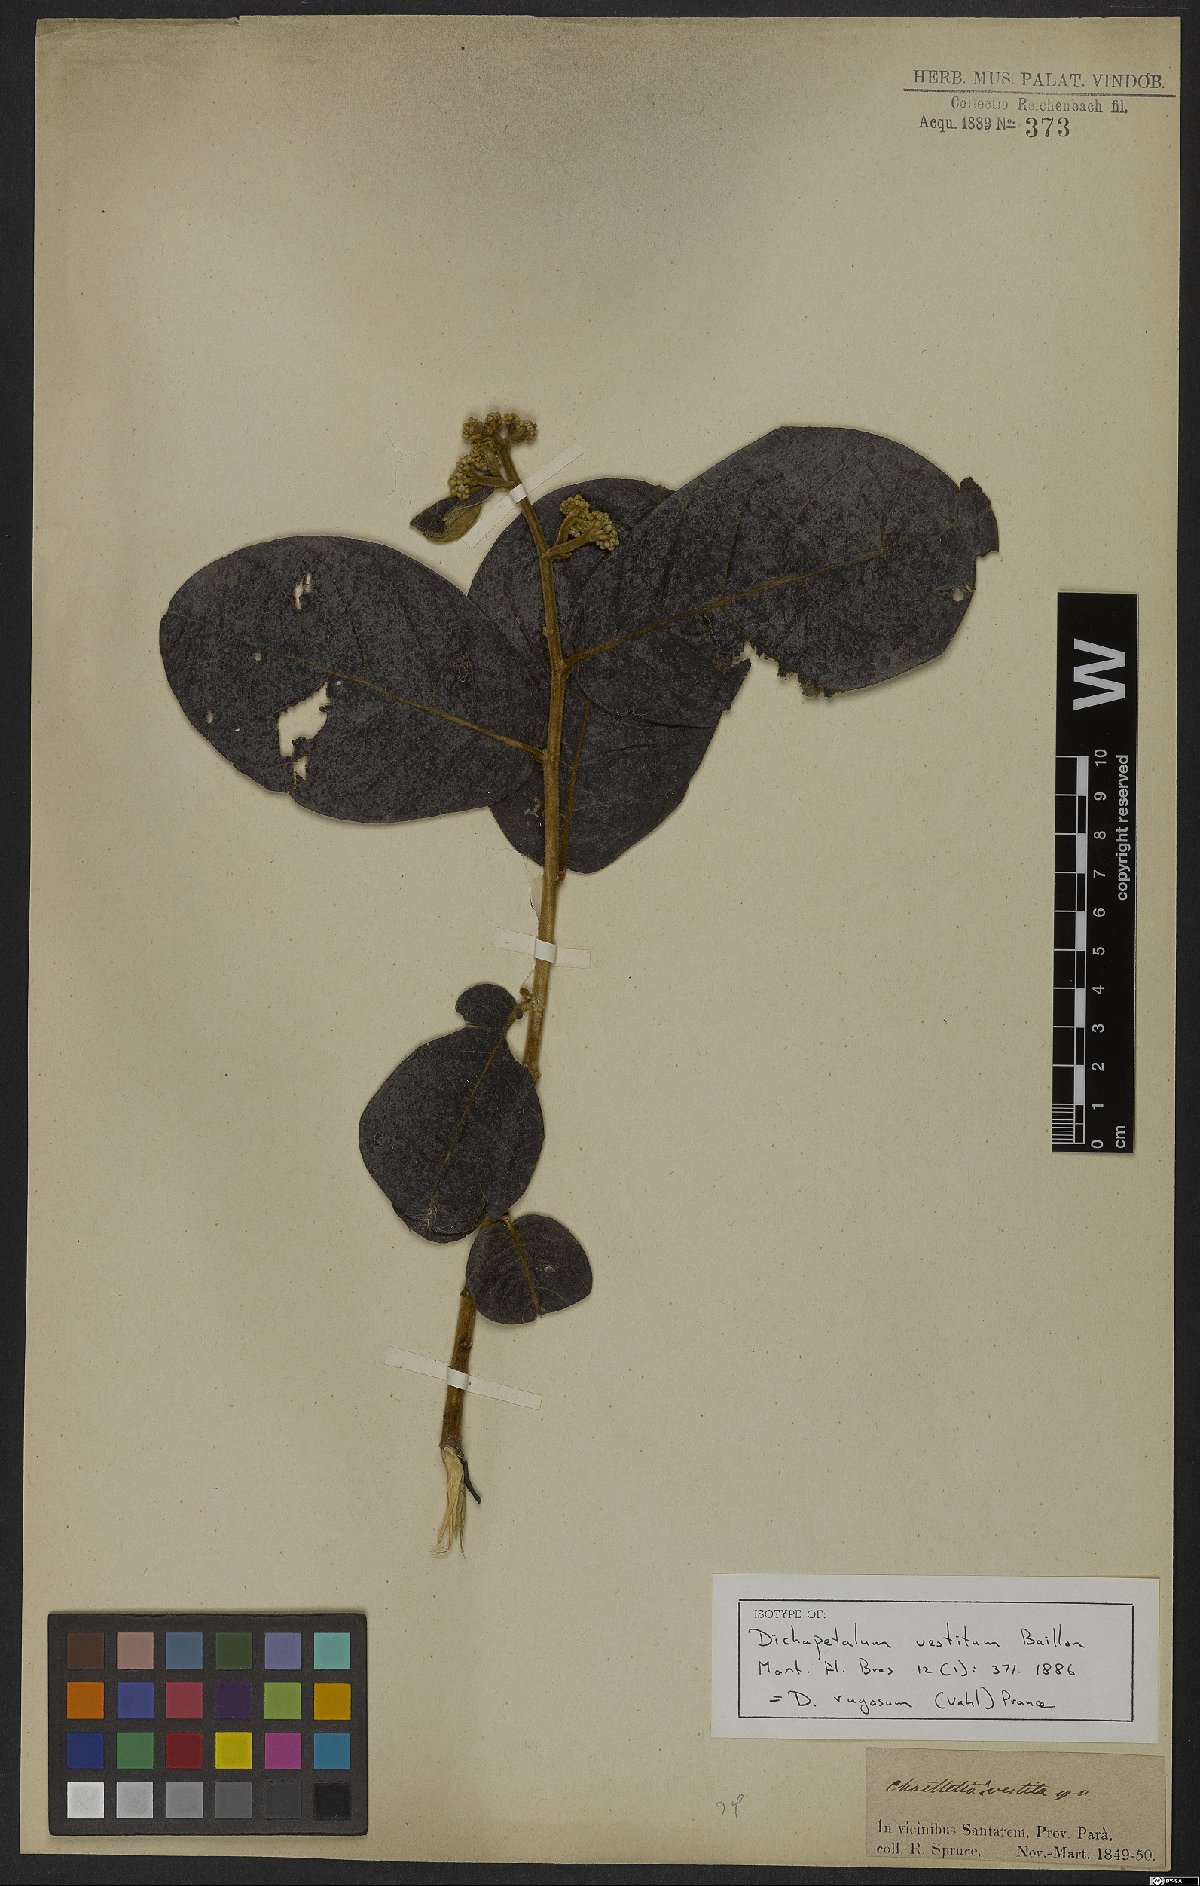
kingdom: Plantae
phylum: Tracheophyta
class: Magnoliopsida
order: Malpighiales
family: Dichapetalaceae
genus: Dichapetalum
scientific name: Dichapetalum rugosum
